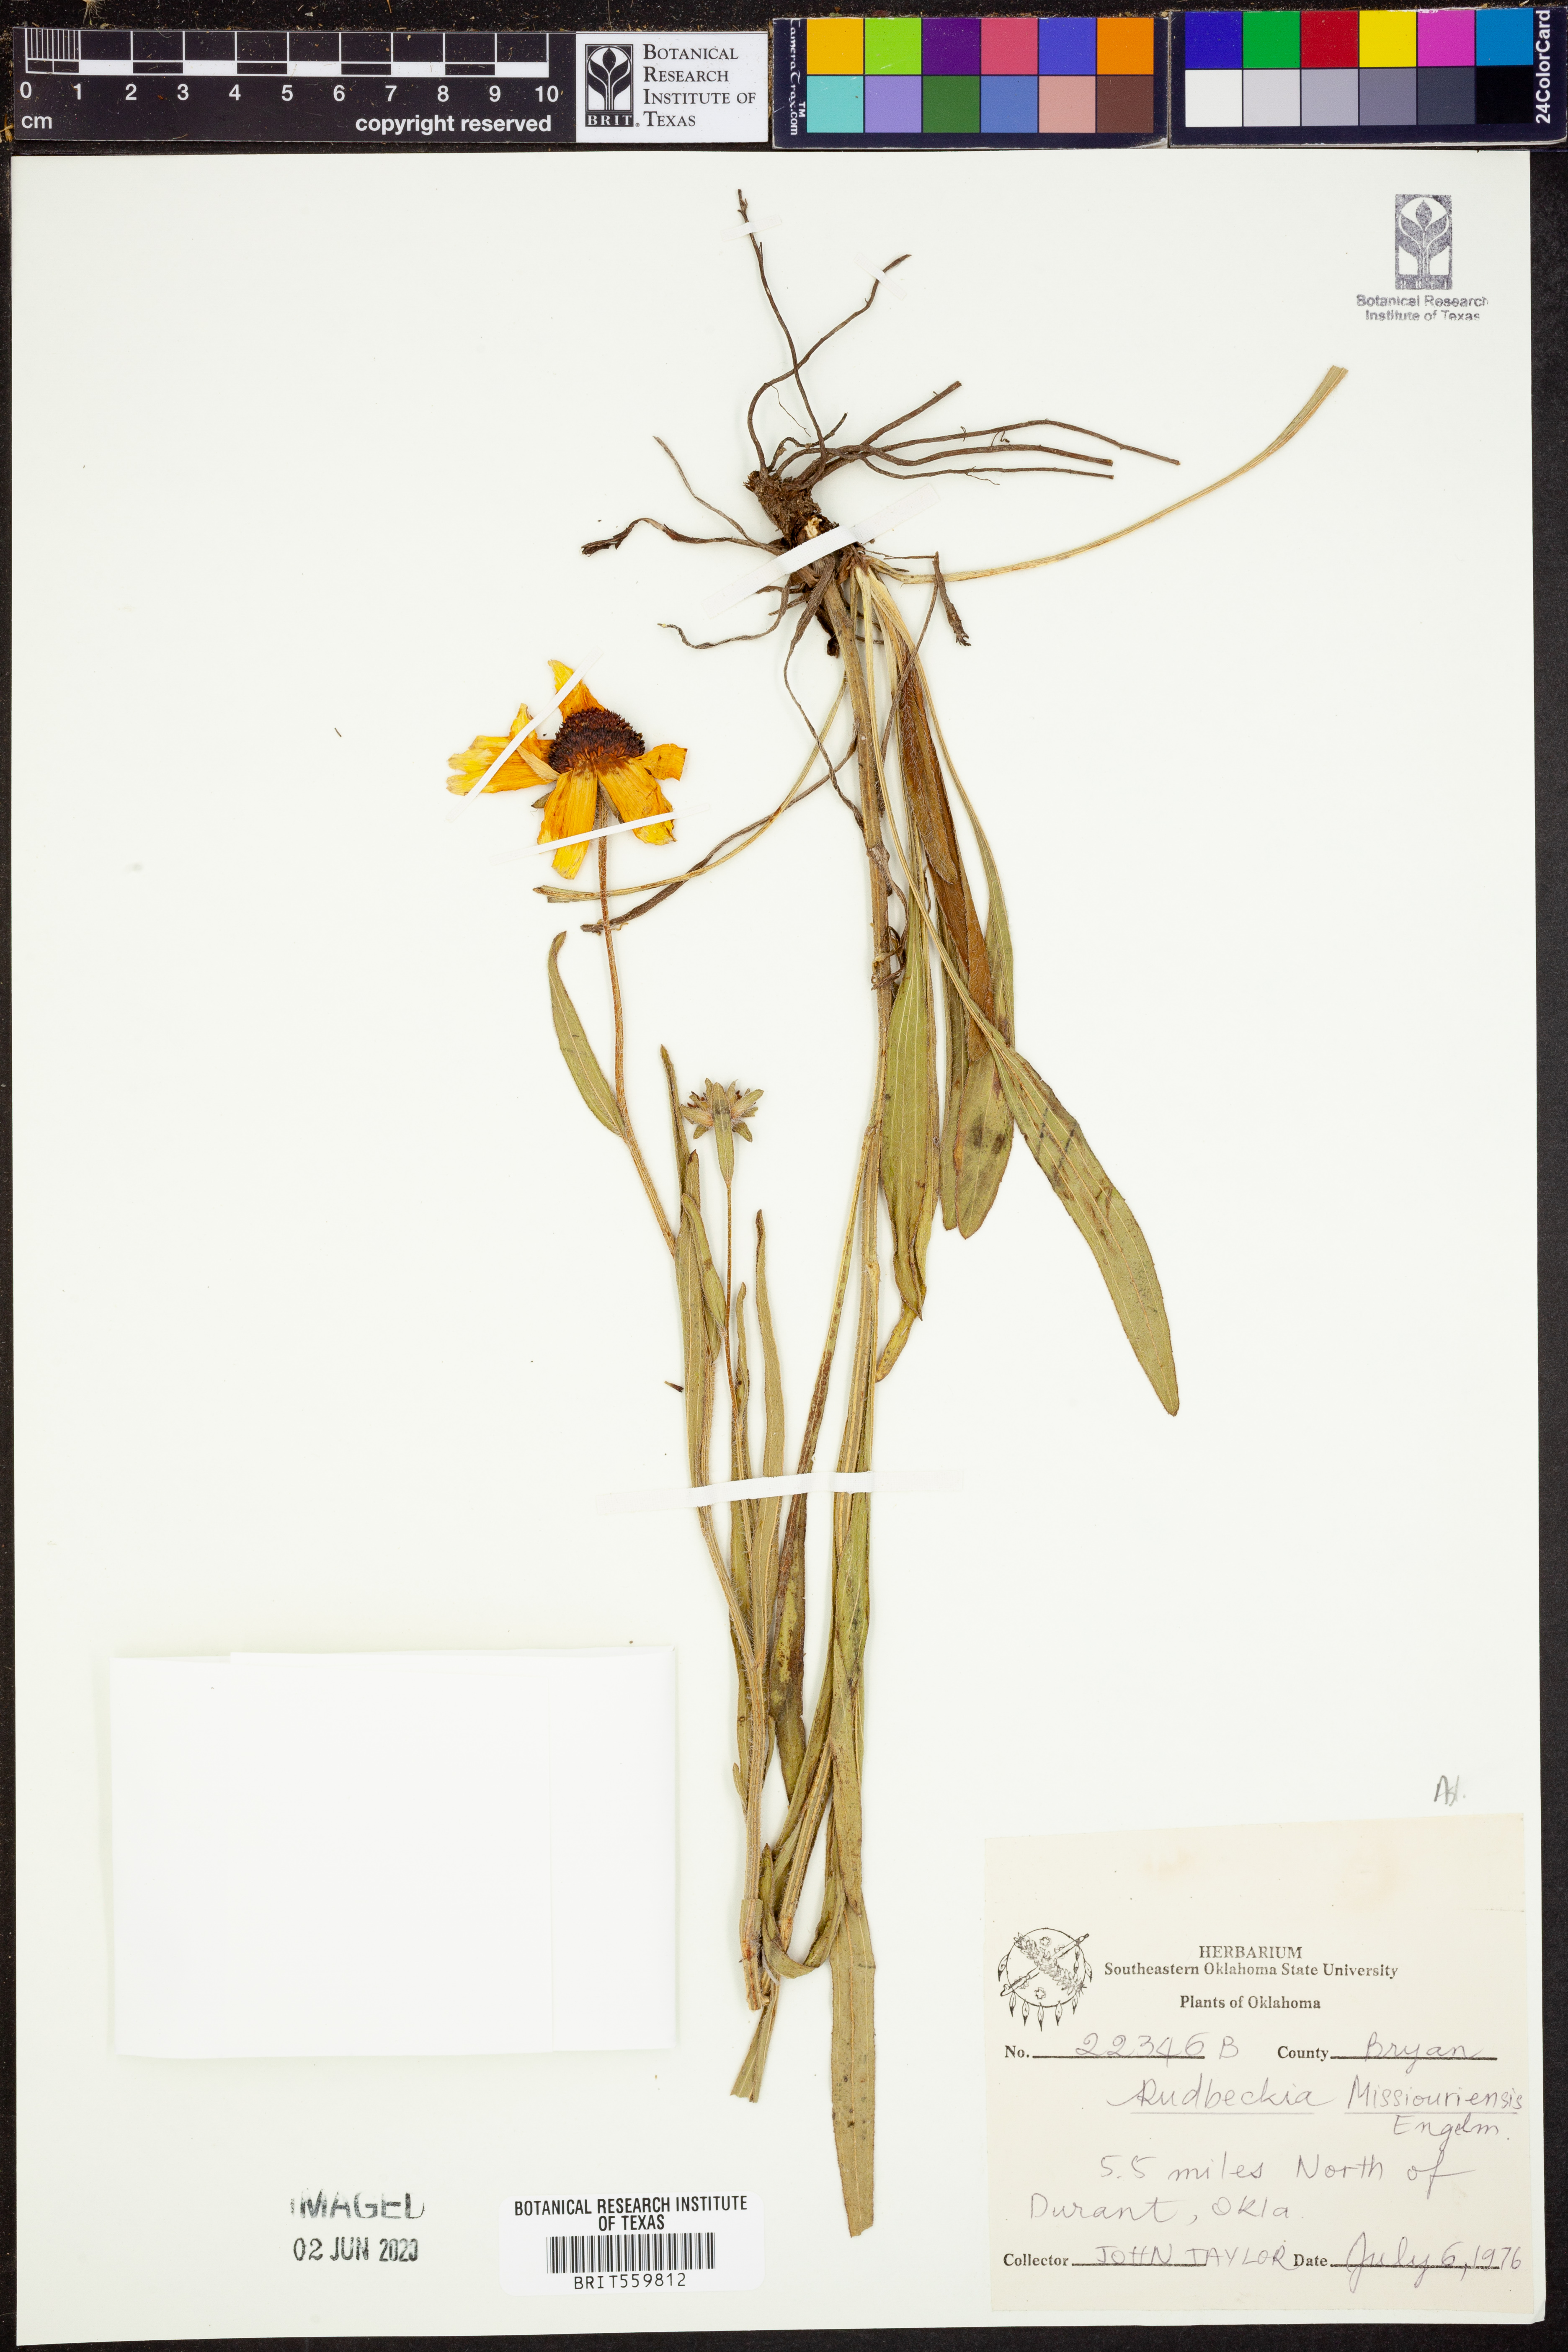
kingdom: Plantae
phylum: Tracheophyta
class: Magnoliopsida
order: Asterales
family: Asteraceae
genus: Rudbeckia
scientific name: Rudbeckia missouriensis
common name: Missouri coneflower
